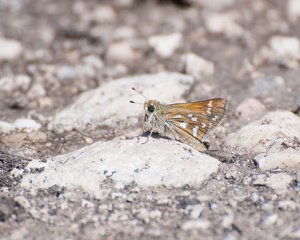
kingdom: Animalia
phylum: Arthropoda
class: Insecta
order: Lepidoptera
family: Hesperiidae
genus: Hesperia
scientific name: Hesperia viridis
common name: Green Skipper
